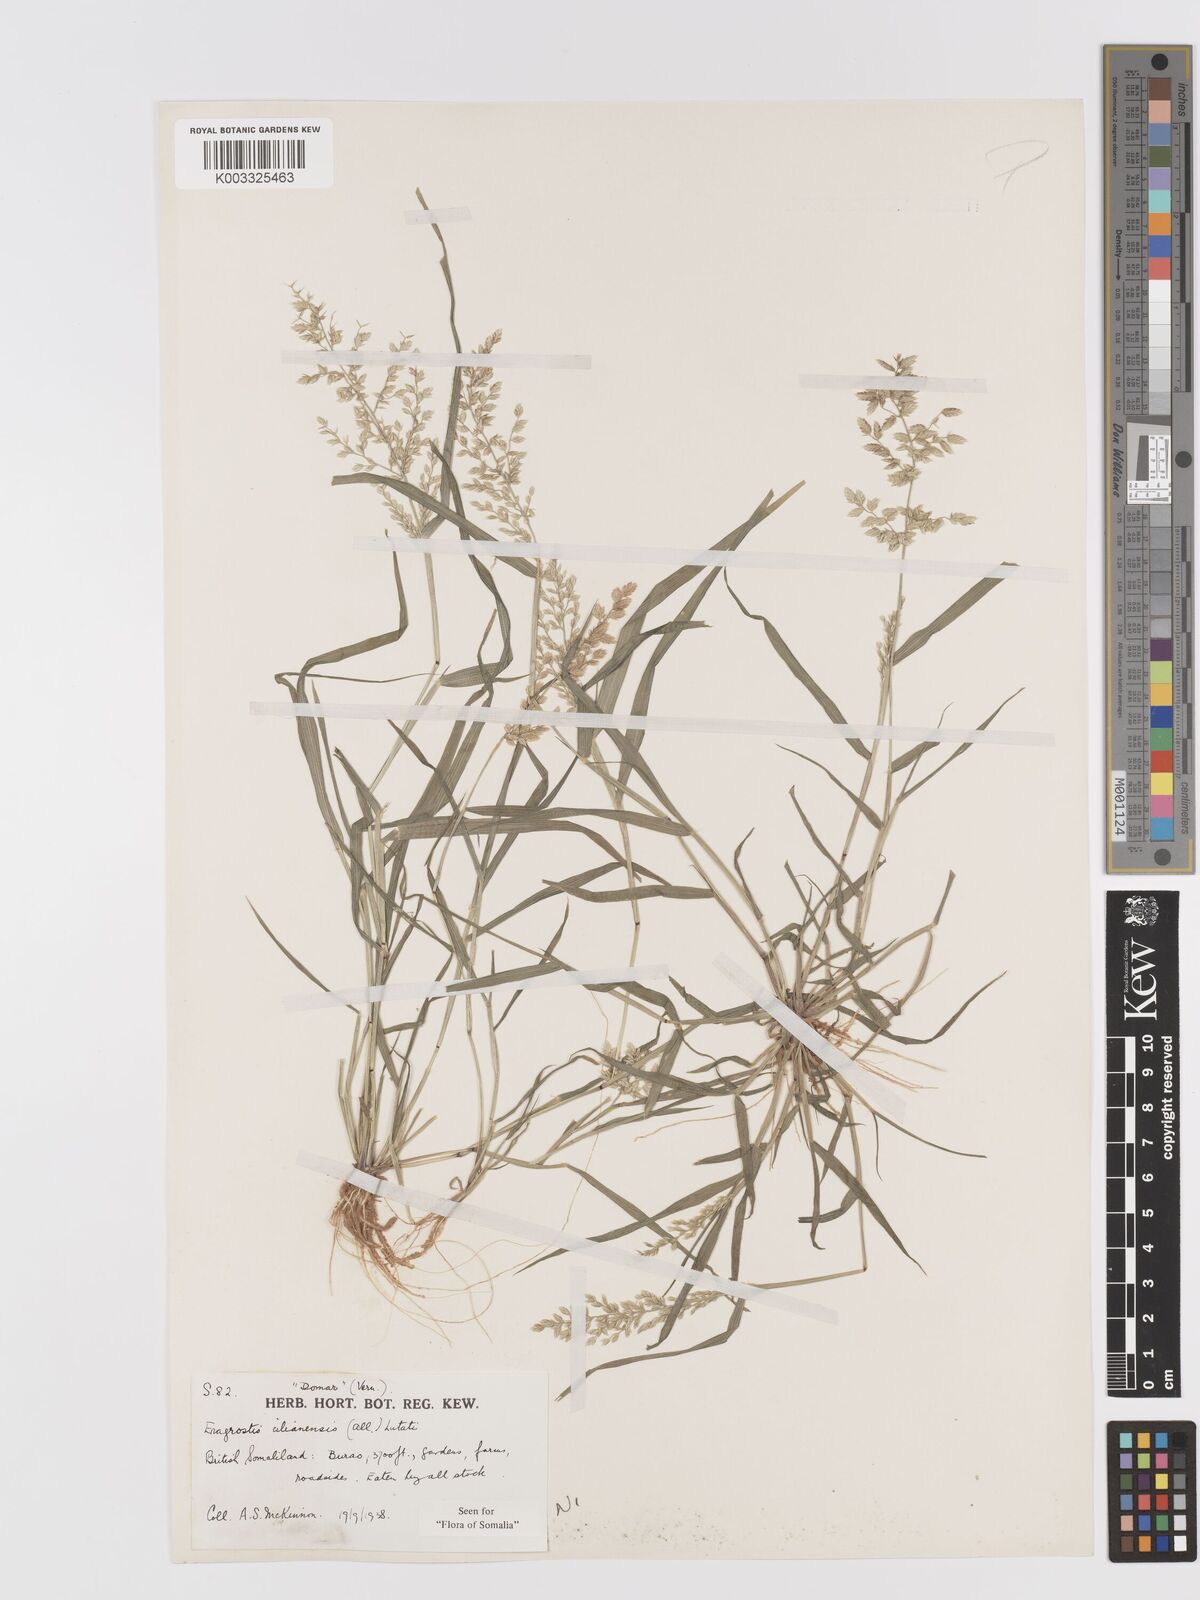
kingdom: Plantae
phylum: Tracheophyta
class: Liliopsida
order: Poales
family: Poaceae
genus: Eragrostis
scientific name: Eragrostis cilianensis
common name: Stinkgrass
